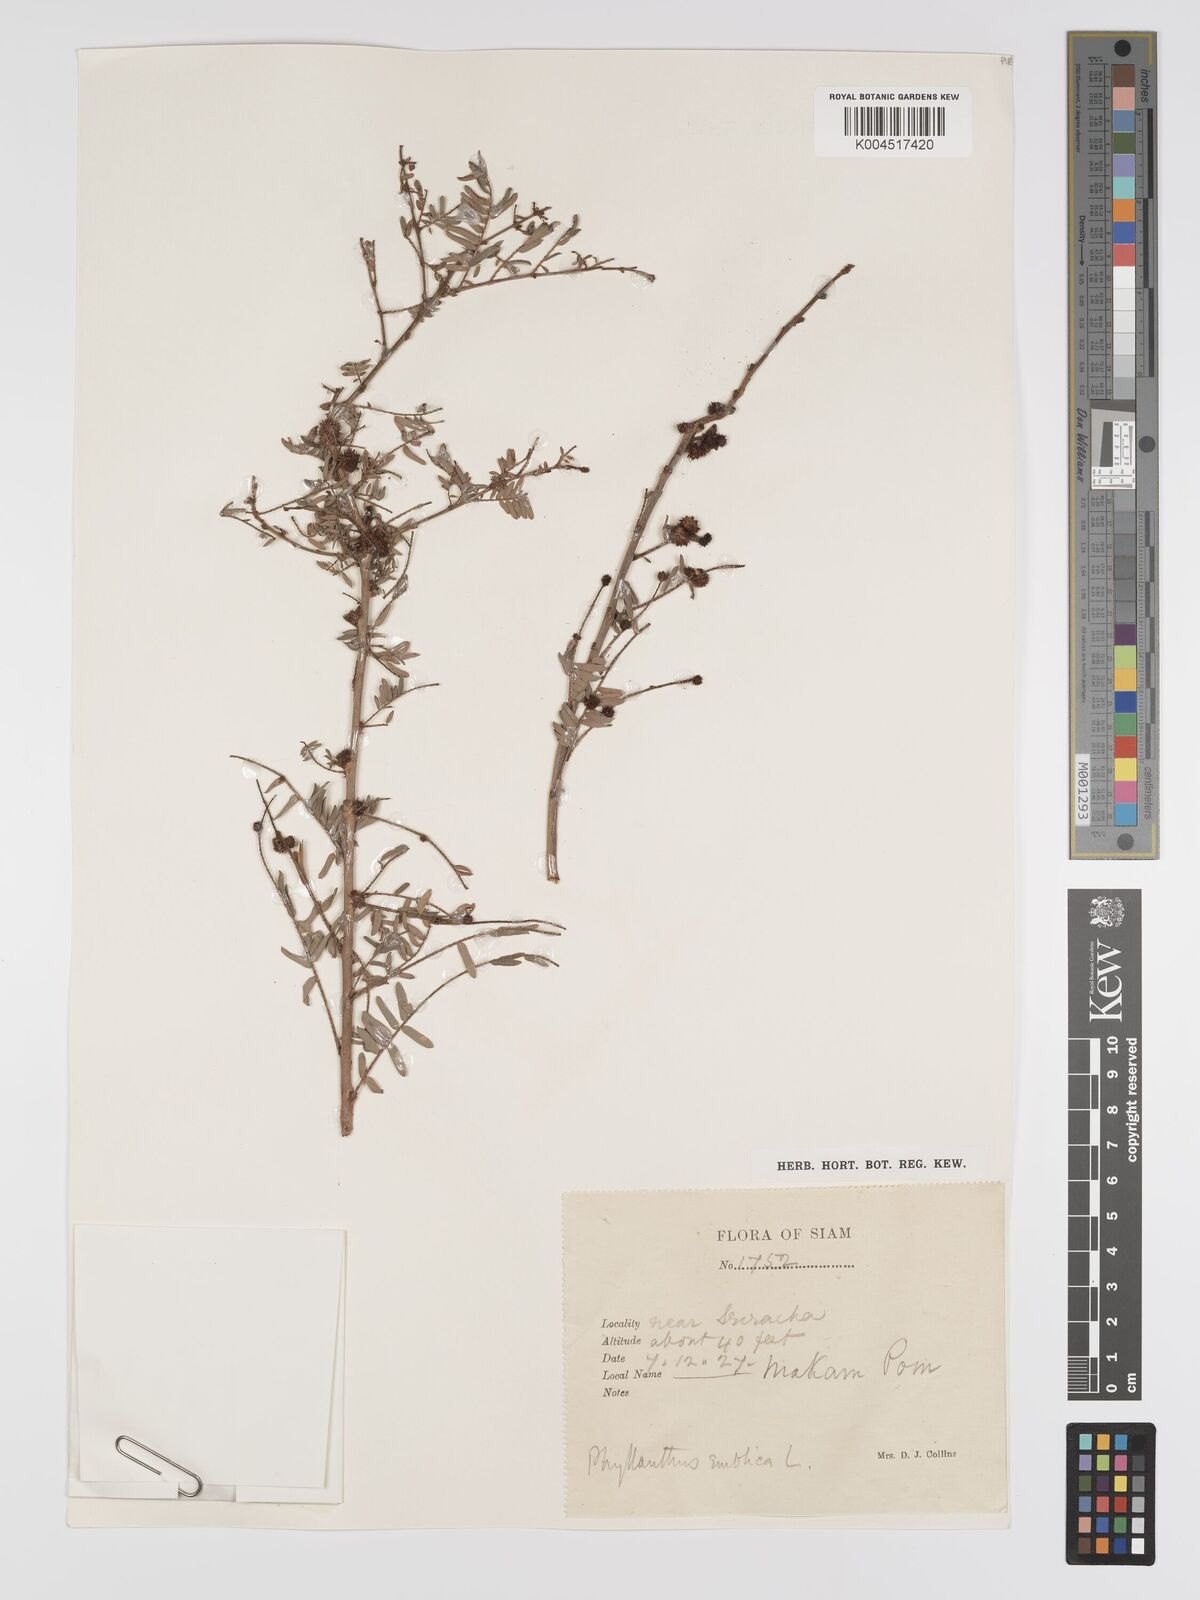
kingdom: Plantae
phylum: Tracheophyta
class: Magnoliopsida
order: Malpighiales
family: Phyllanthaceae
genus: Phyllanthus
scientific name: Phyllanthus emblica
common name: Indian gooseberry
